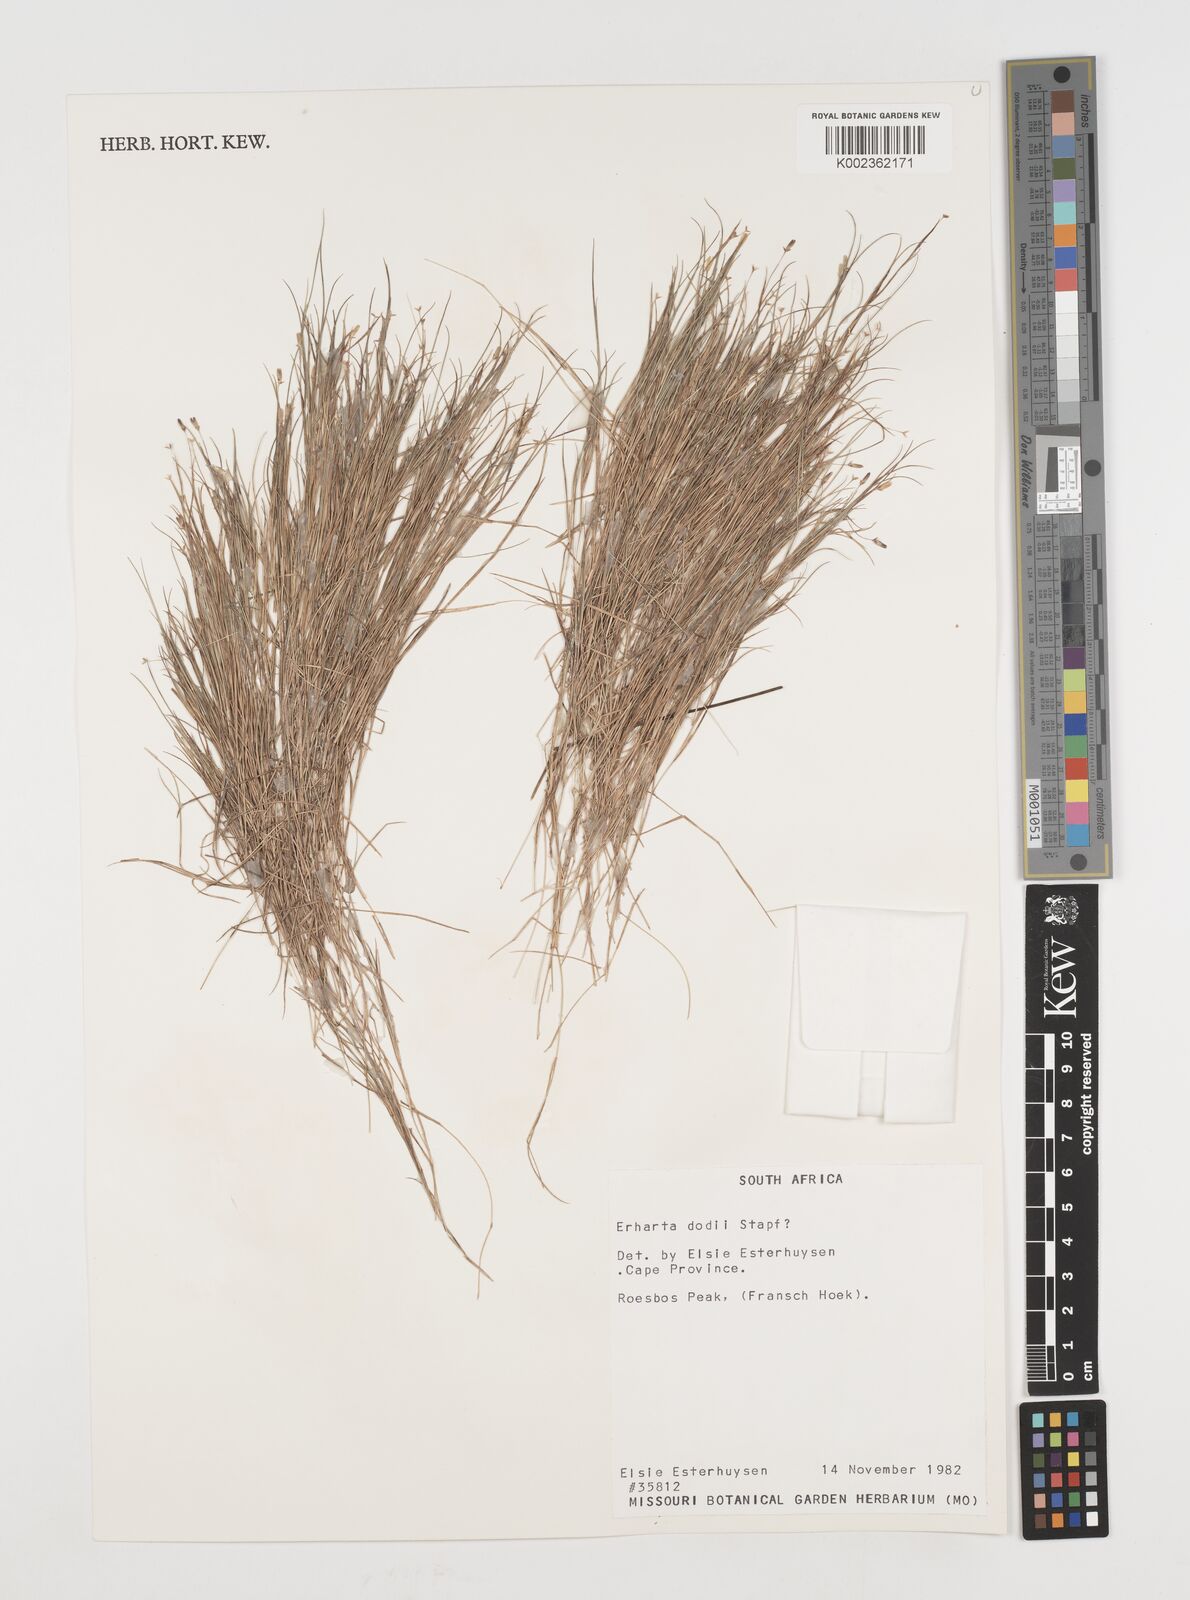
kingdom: Plantae
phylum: Tracheophyta
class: Liliopsida
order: Poales
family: Poaceae
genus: Ehrharta
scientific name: Ehrharta
